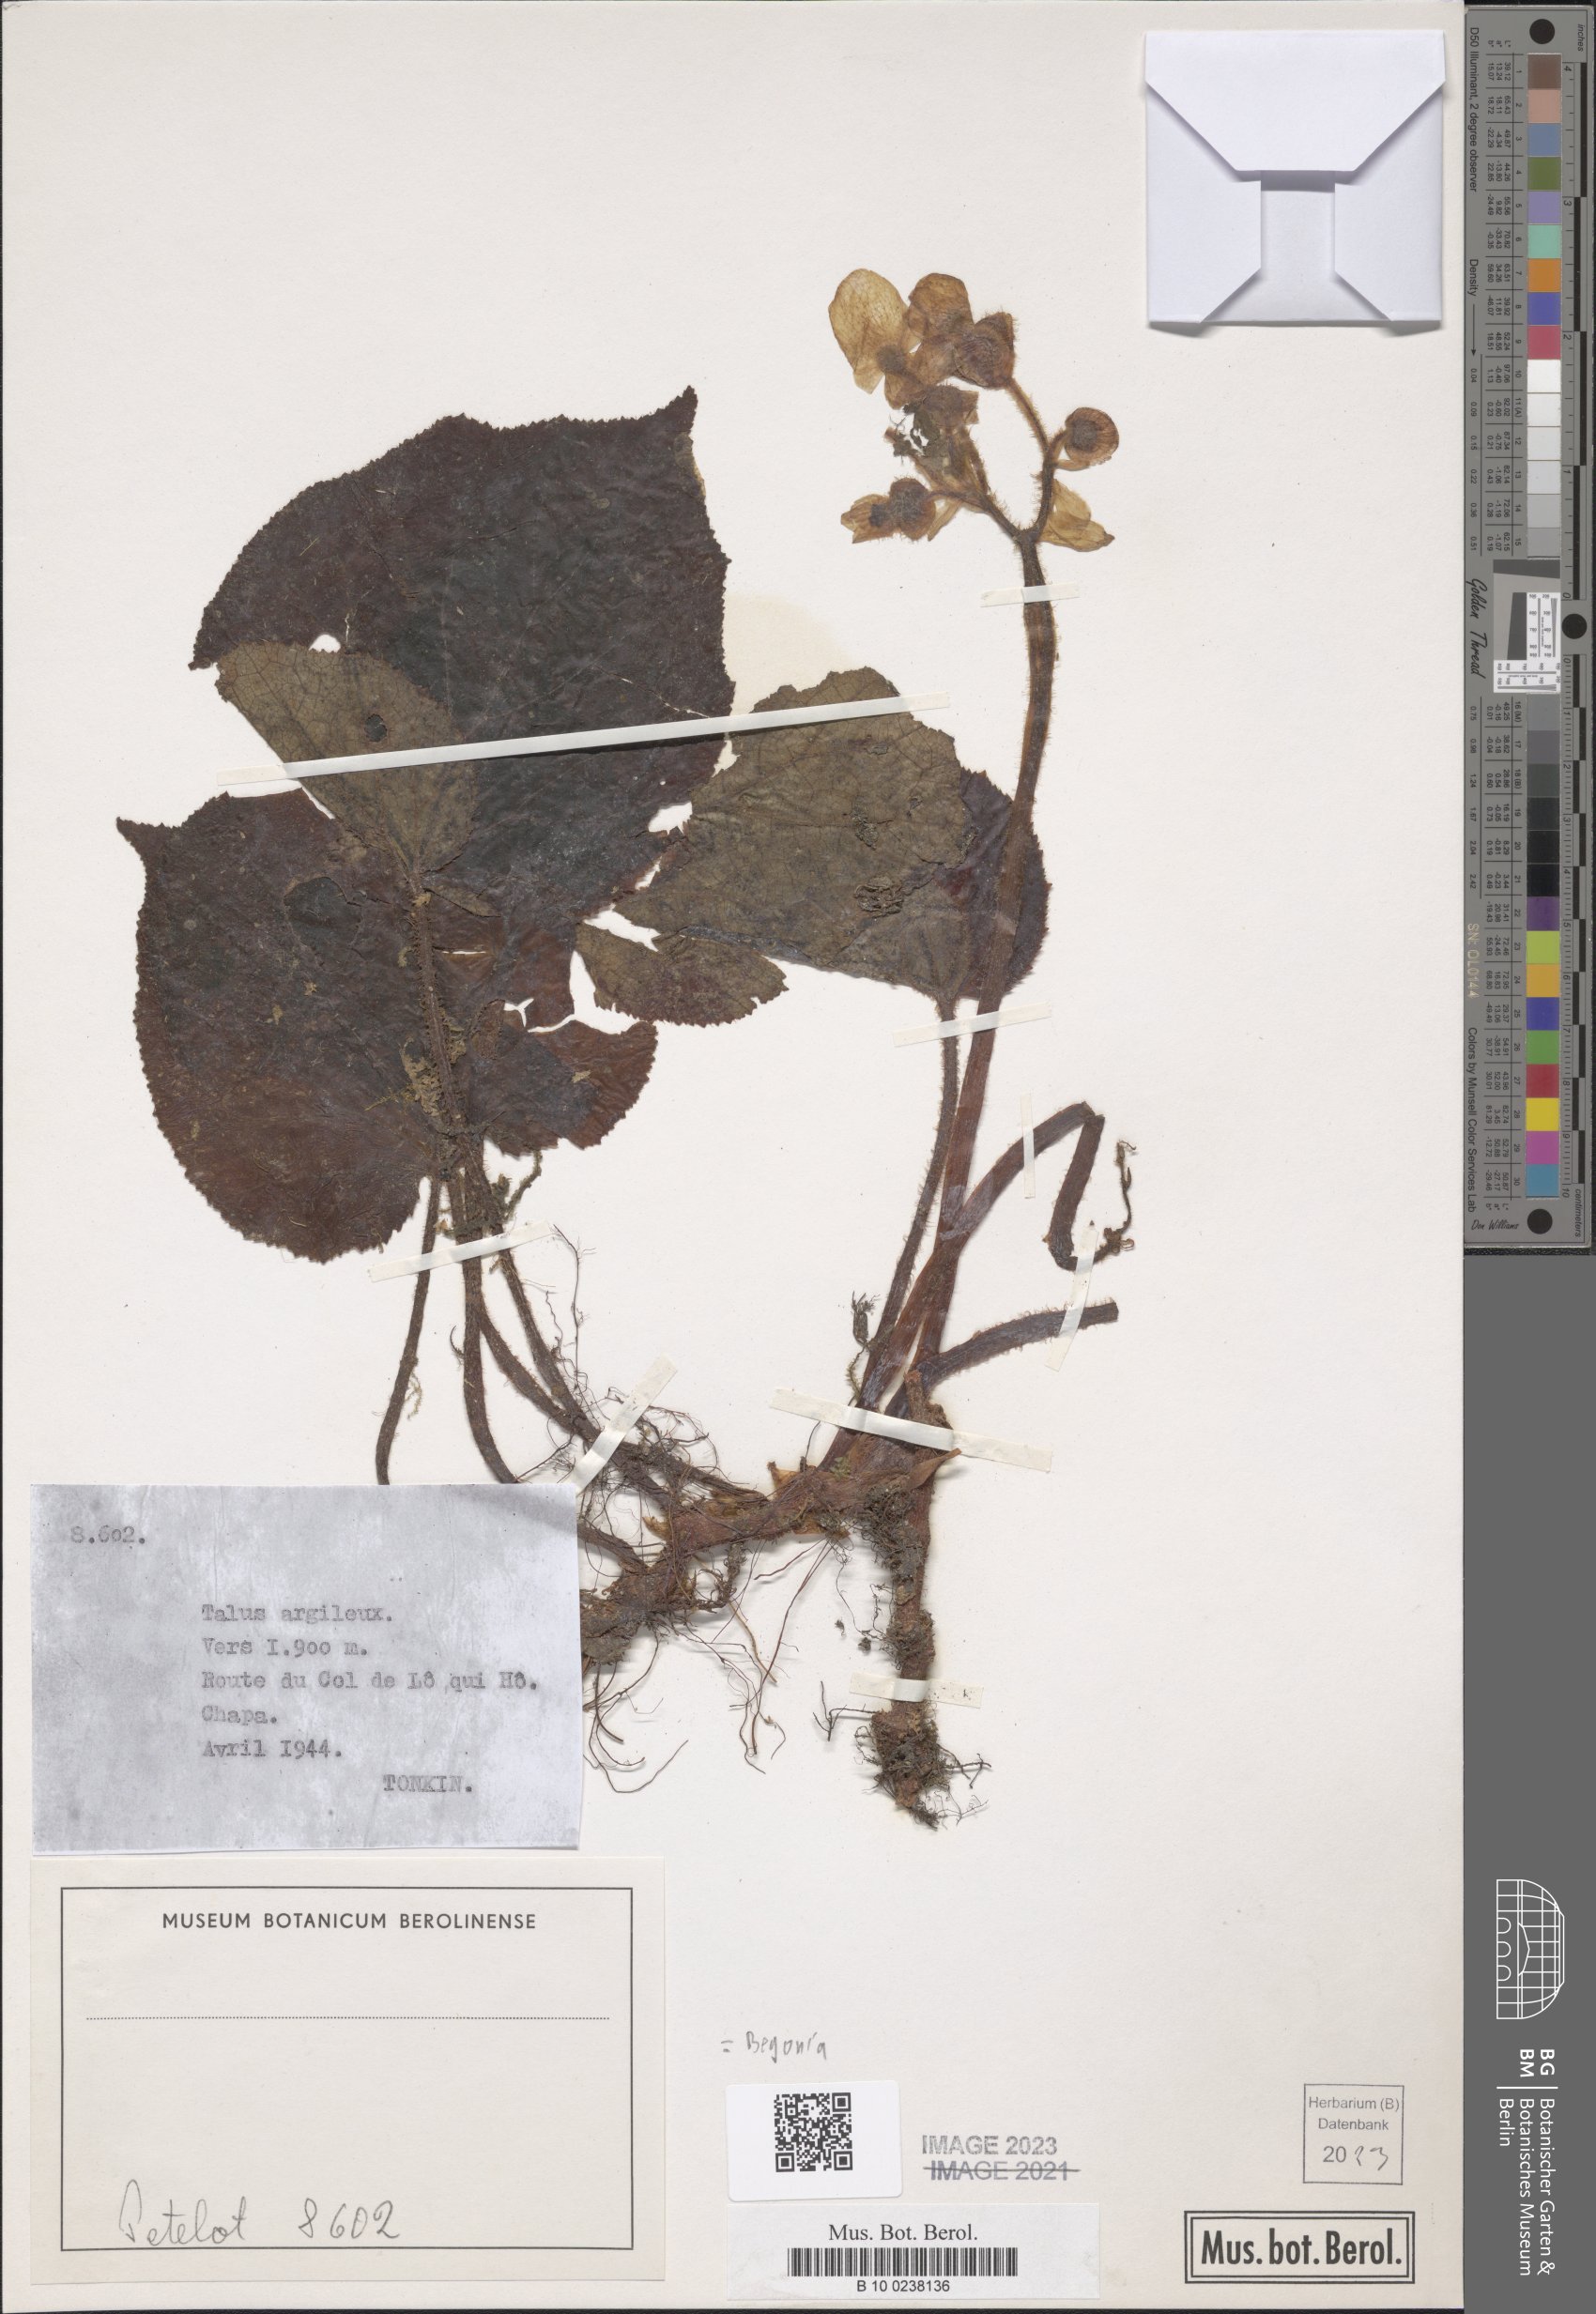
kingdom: Plantae
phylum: Tracheophyta
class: Magnoliopsida
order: Cucurbitales
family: Begoniaceae
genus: Begonia
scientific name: Begonia
